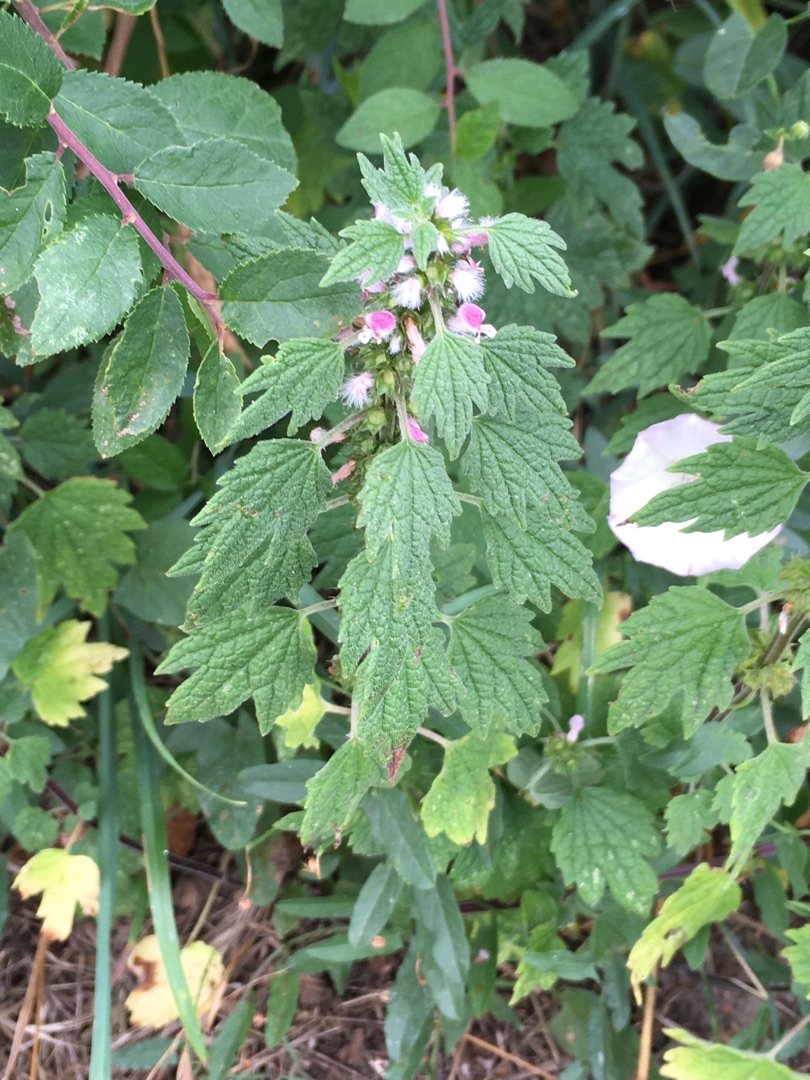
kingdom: Plantae
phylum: Tracheophyta
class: Magnoliopsida
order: Lamiales
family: Lamiaceae
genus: Leonurus
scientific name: Leonurus cardiaca
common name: Hjertespand
